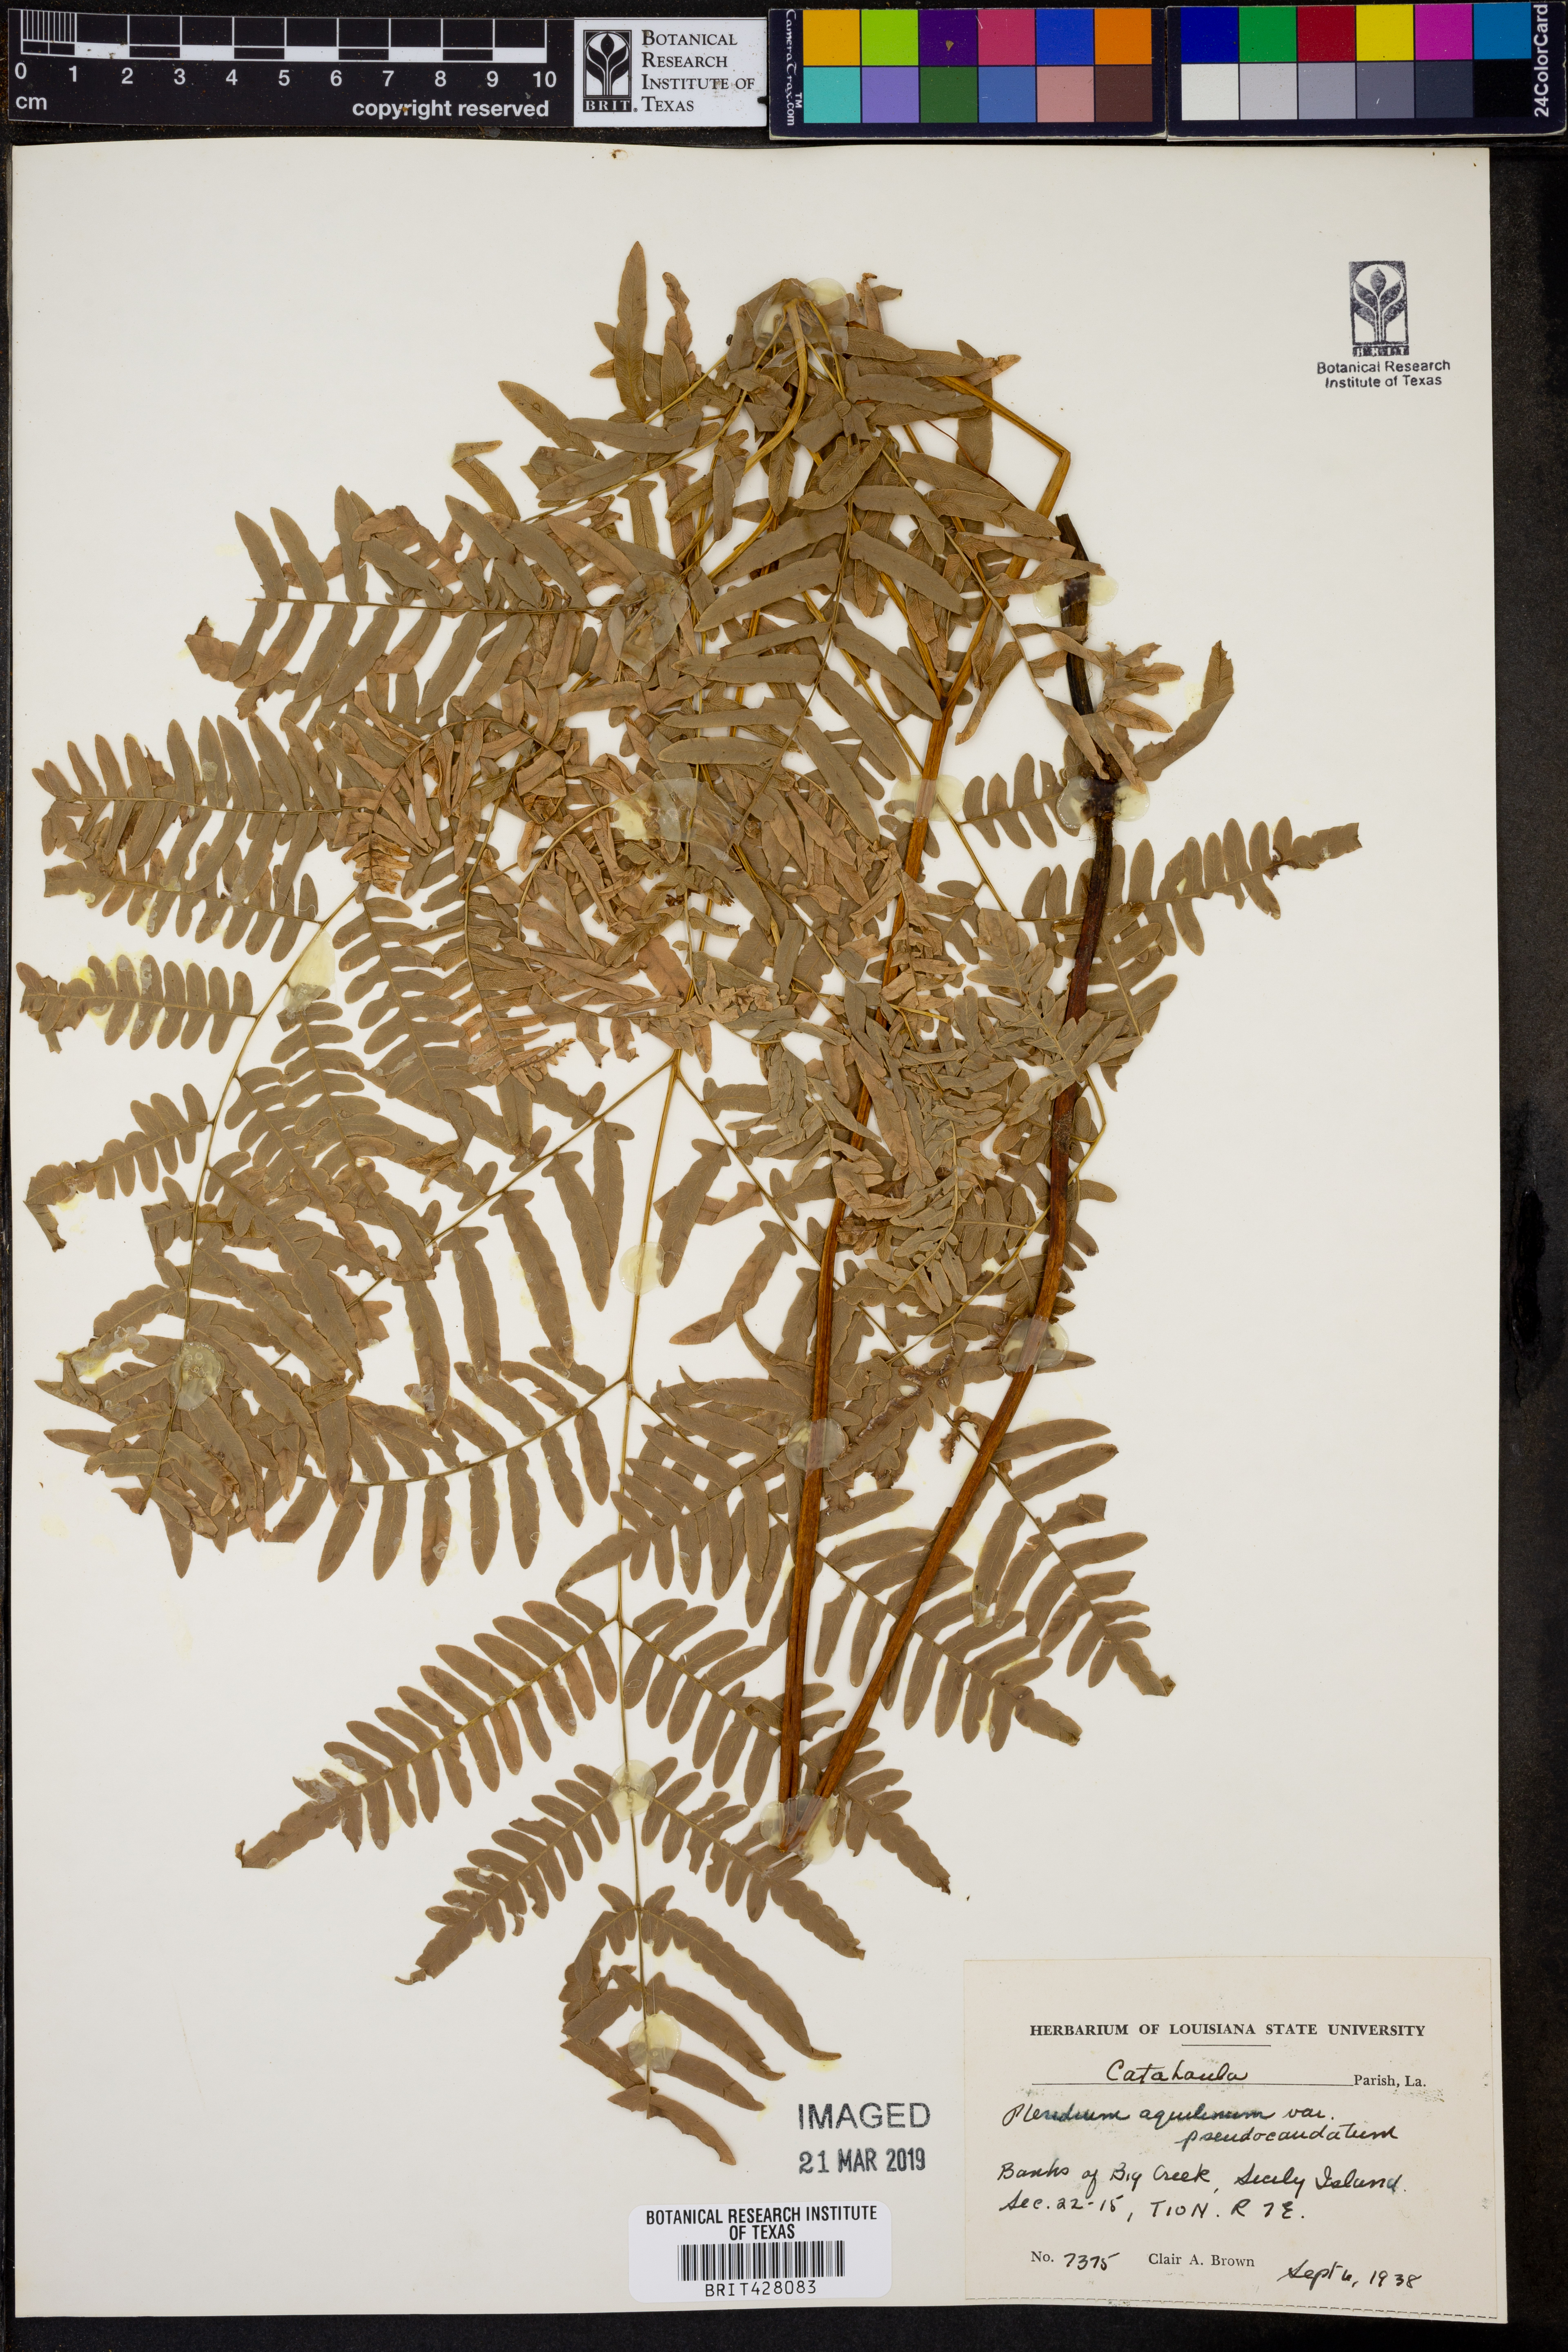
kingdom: Plantae
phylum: Tracheophyta
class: Polypodiopsida
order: Polypodiales
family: Dennstaedtiaceae
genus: Pteridium
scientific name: Pteridium aquilinum
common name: Bracken
